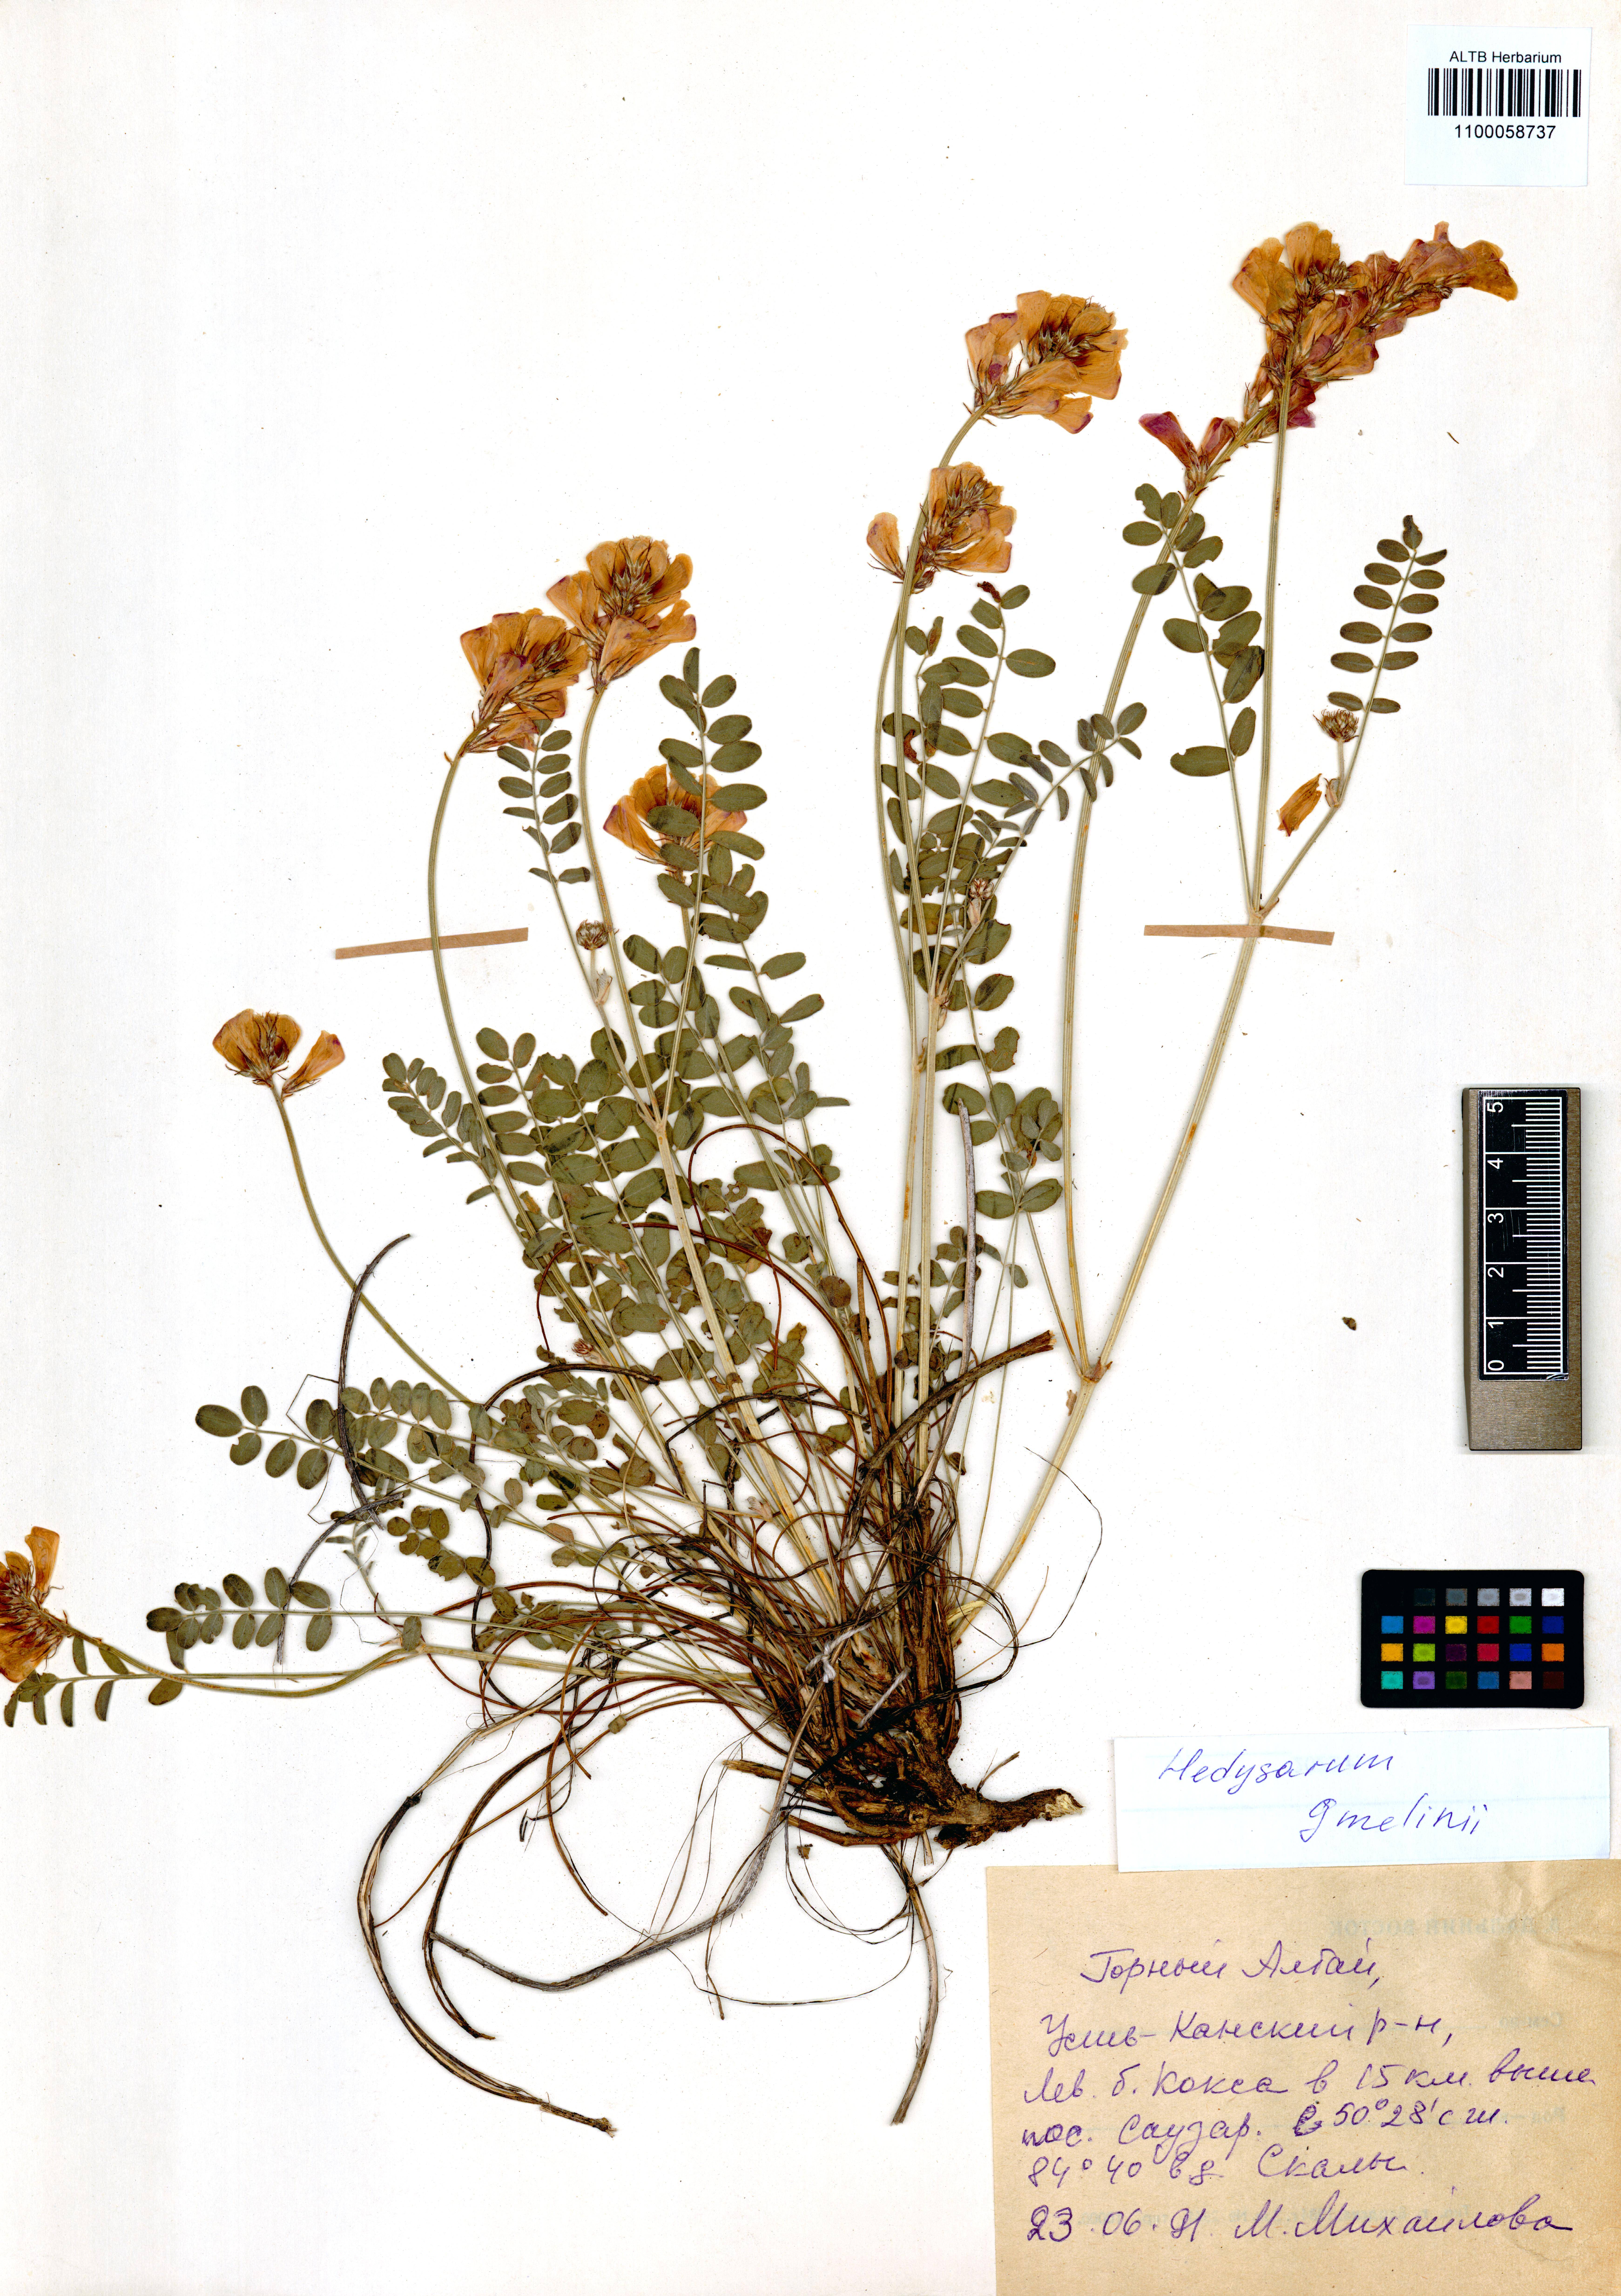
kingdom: Plantae
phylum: Tracheophyta
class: Magnoliopsida
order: Fabales
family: Fabaceae
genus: Hedysarum
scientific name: Hedysarum gmelinii
